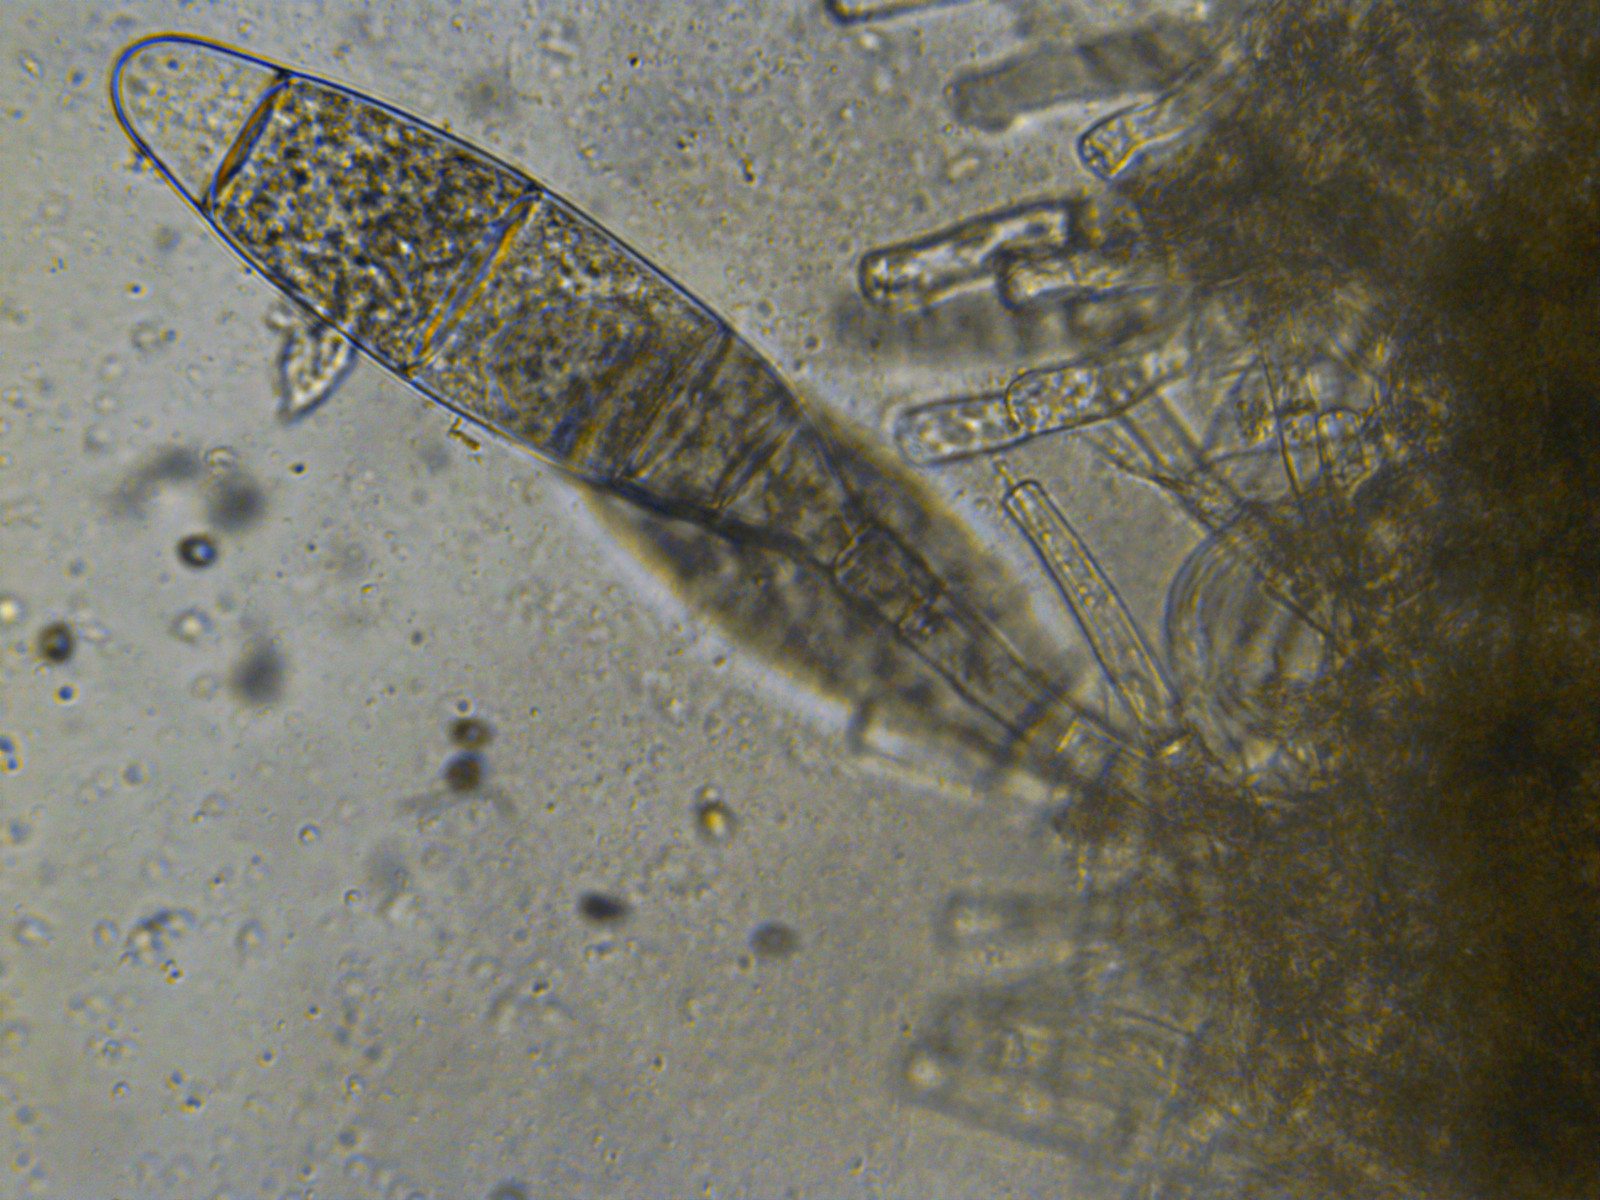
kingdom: Fungi
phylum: Ascomycota
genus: Bactridium
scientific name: Bactridium flavum
